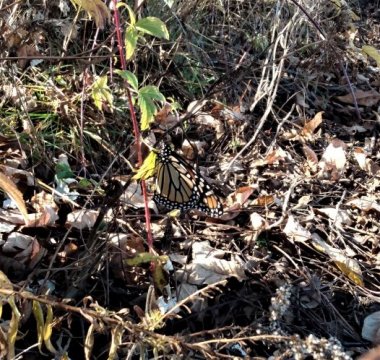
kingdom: Animalia
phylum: Arthropoda
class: Insecta
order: Lepidoptera
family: Nymphalidae
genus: Danaus
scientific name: Danaus plexippus
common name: Monarch
